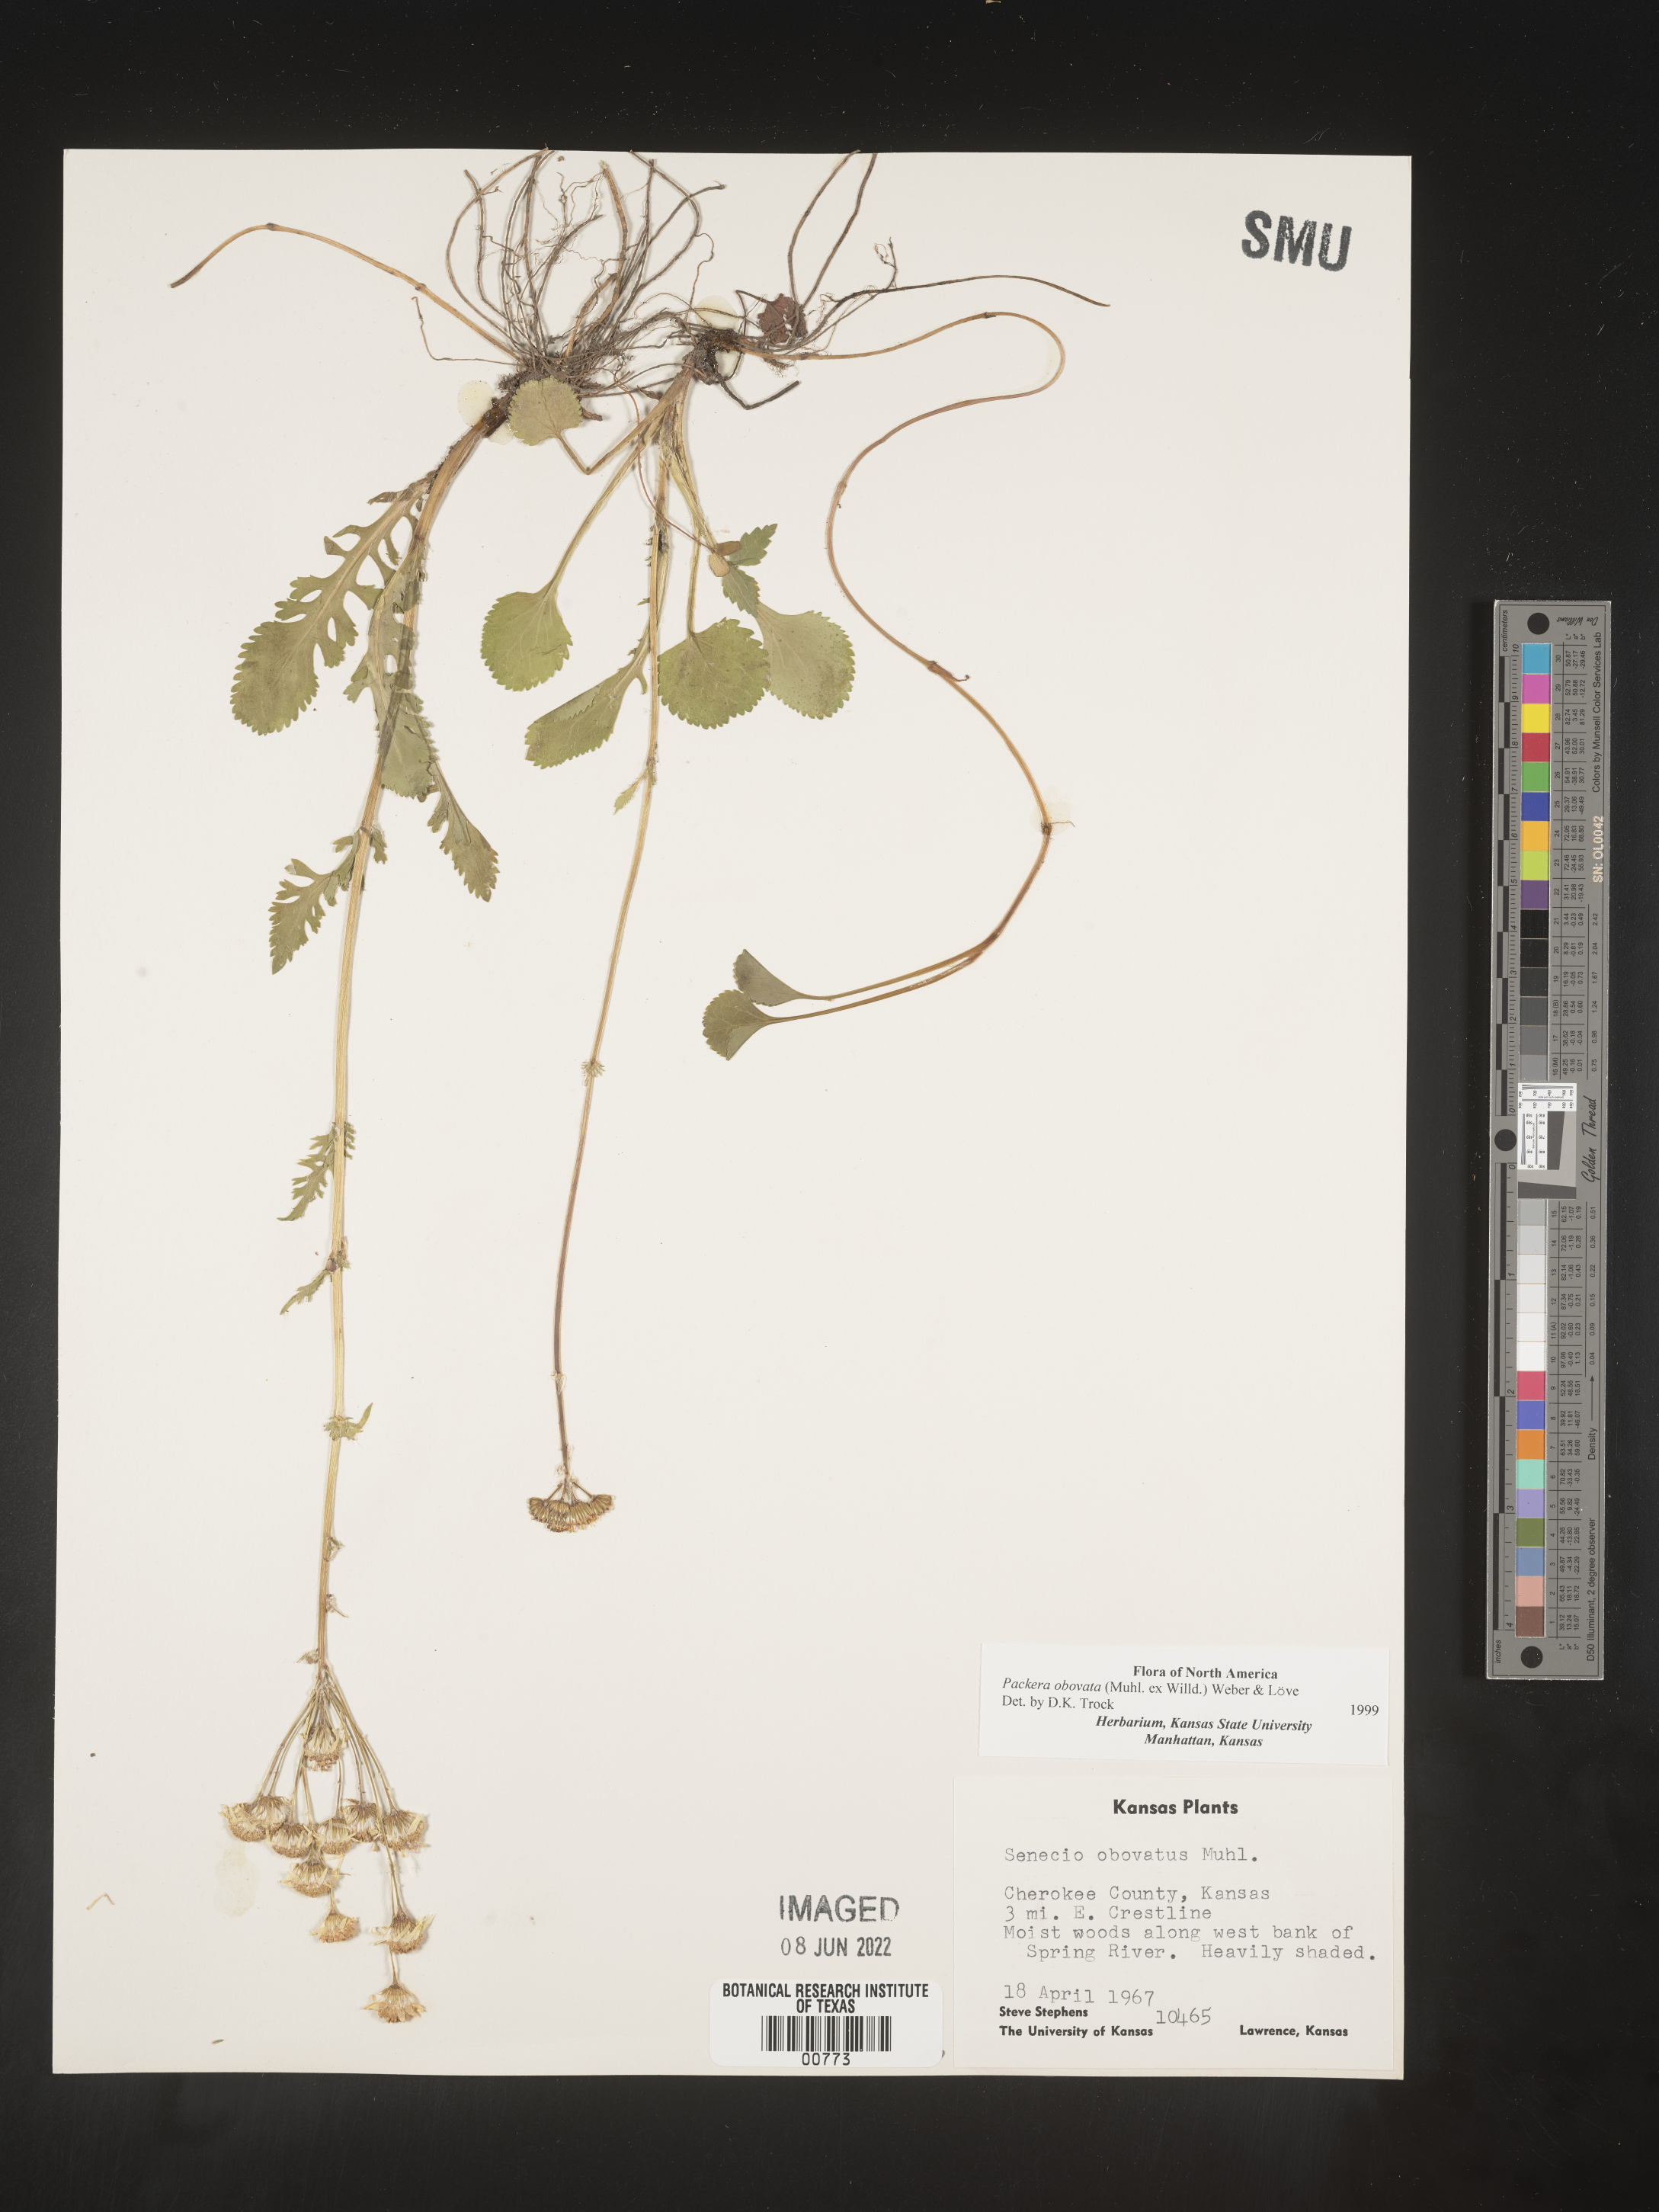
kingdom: Plantae
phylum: Tracheophyta
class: Magnoliopsida
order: Asterales
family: Asteraceae
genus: Packera
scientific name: Packera obovata
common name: Round-leaf ragwort
